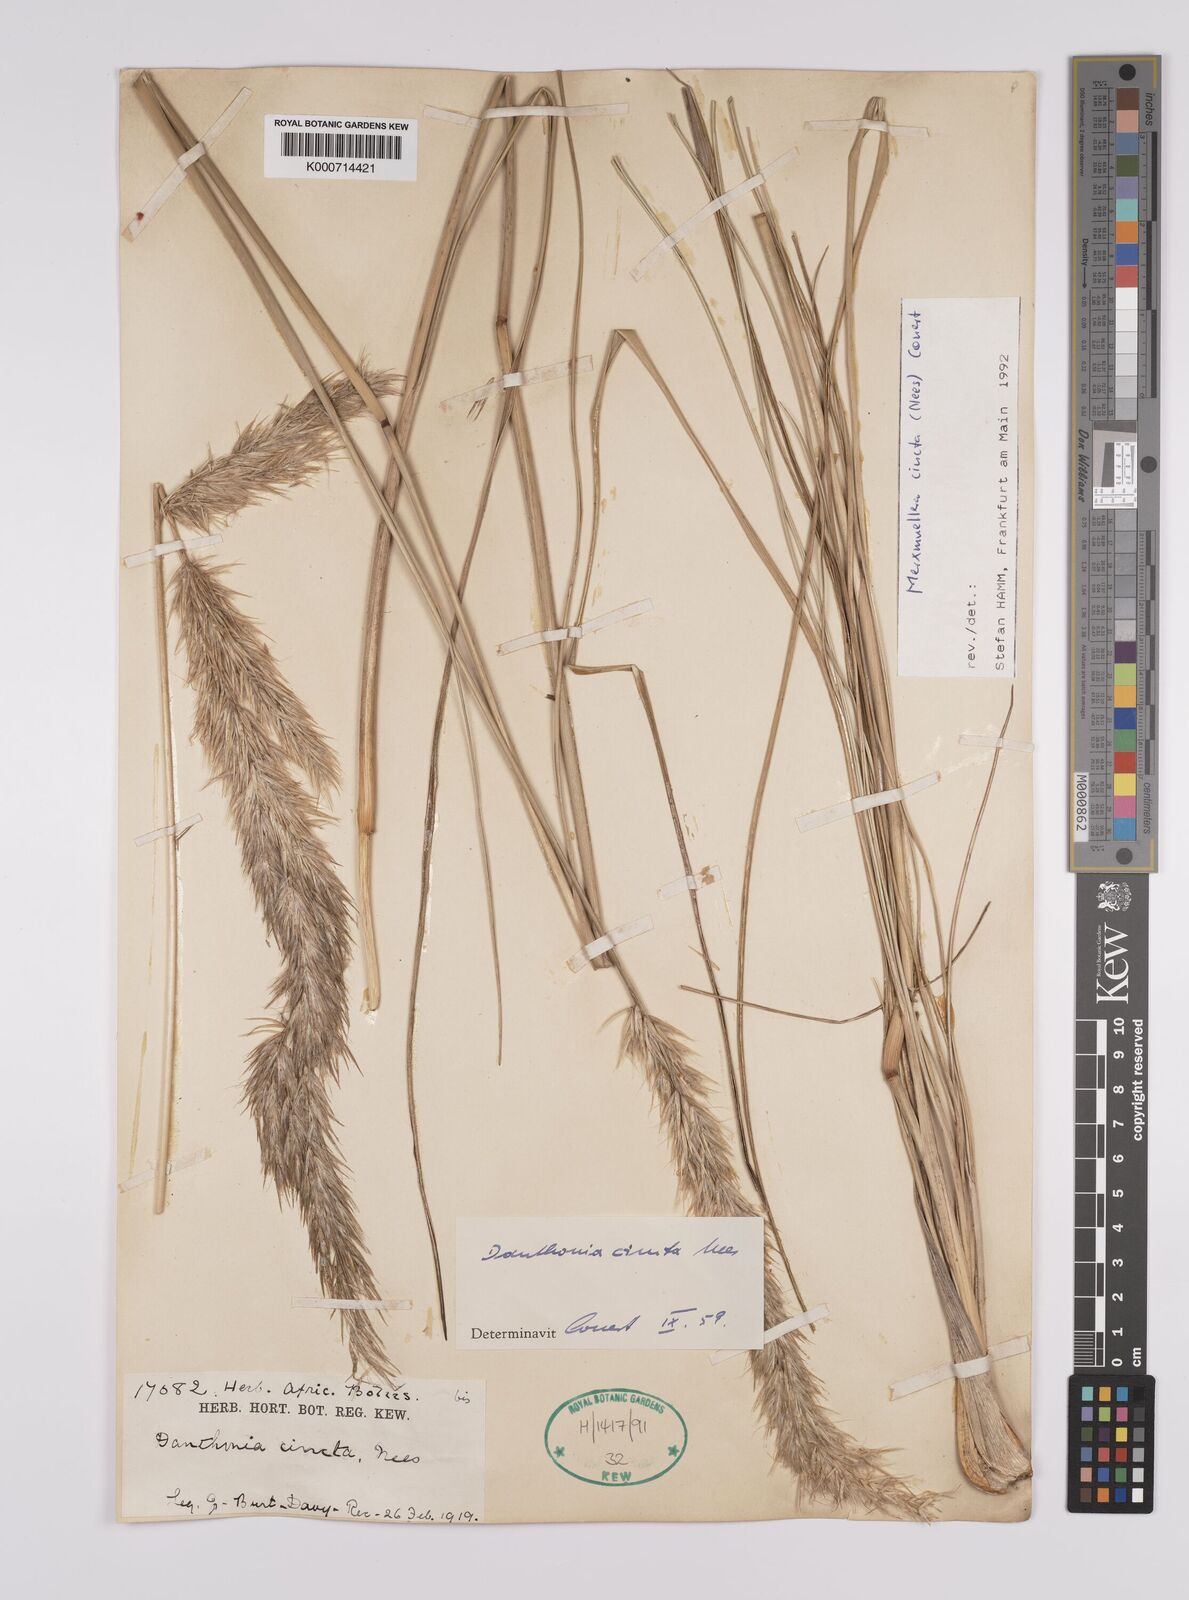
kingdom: Plantae
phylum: Tracheophyta
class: Liliopsida
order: Poales
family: Poaceae
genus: Rytidosperma
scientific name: Rytidosperma
